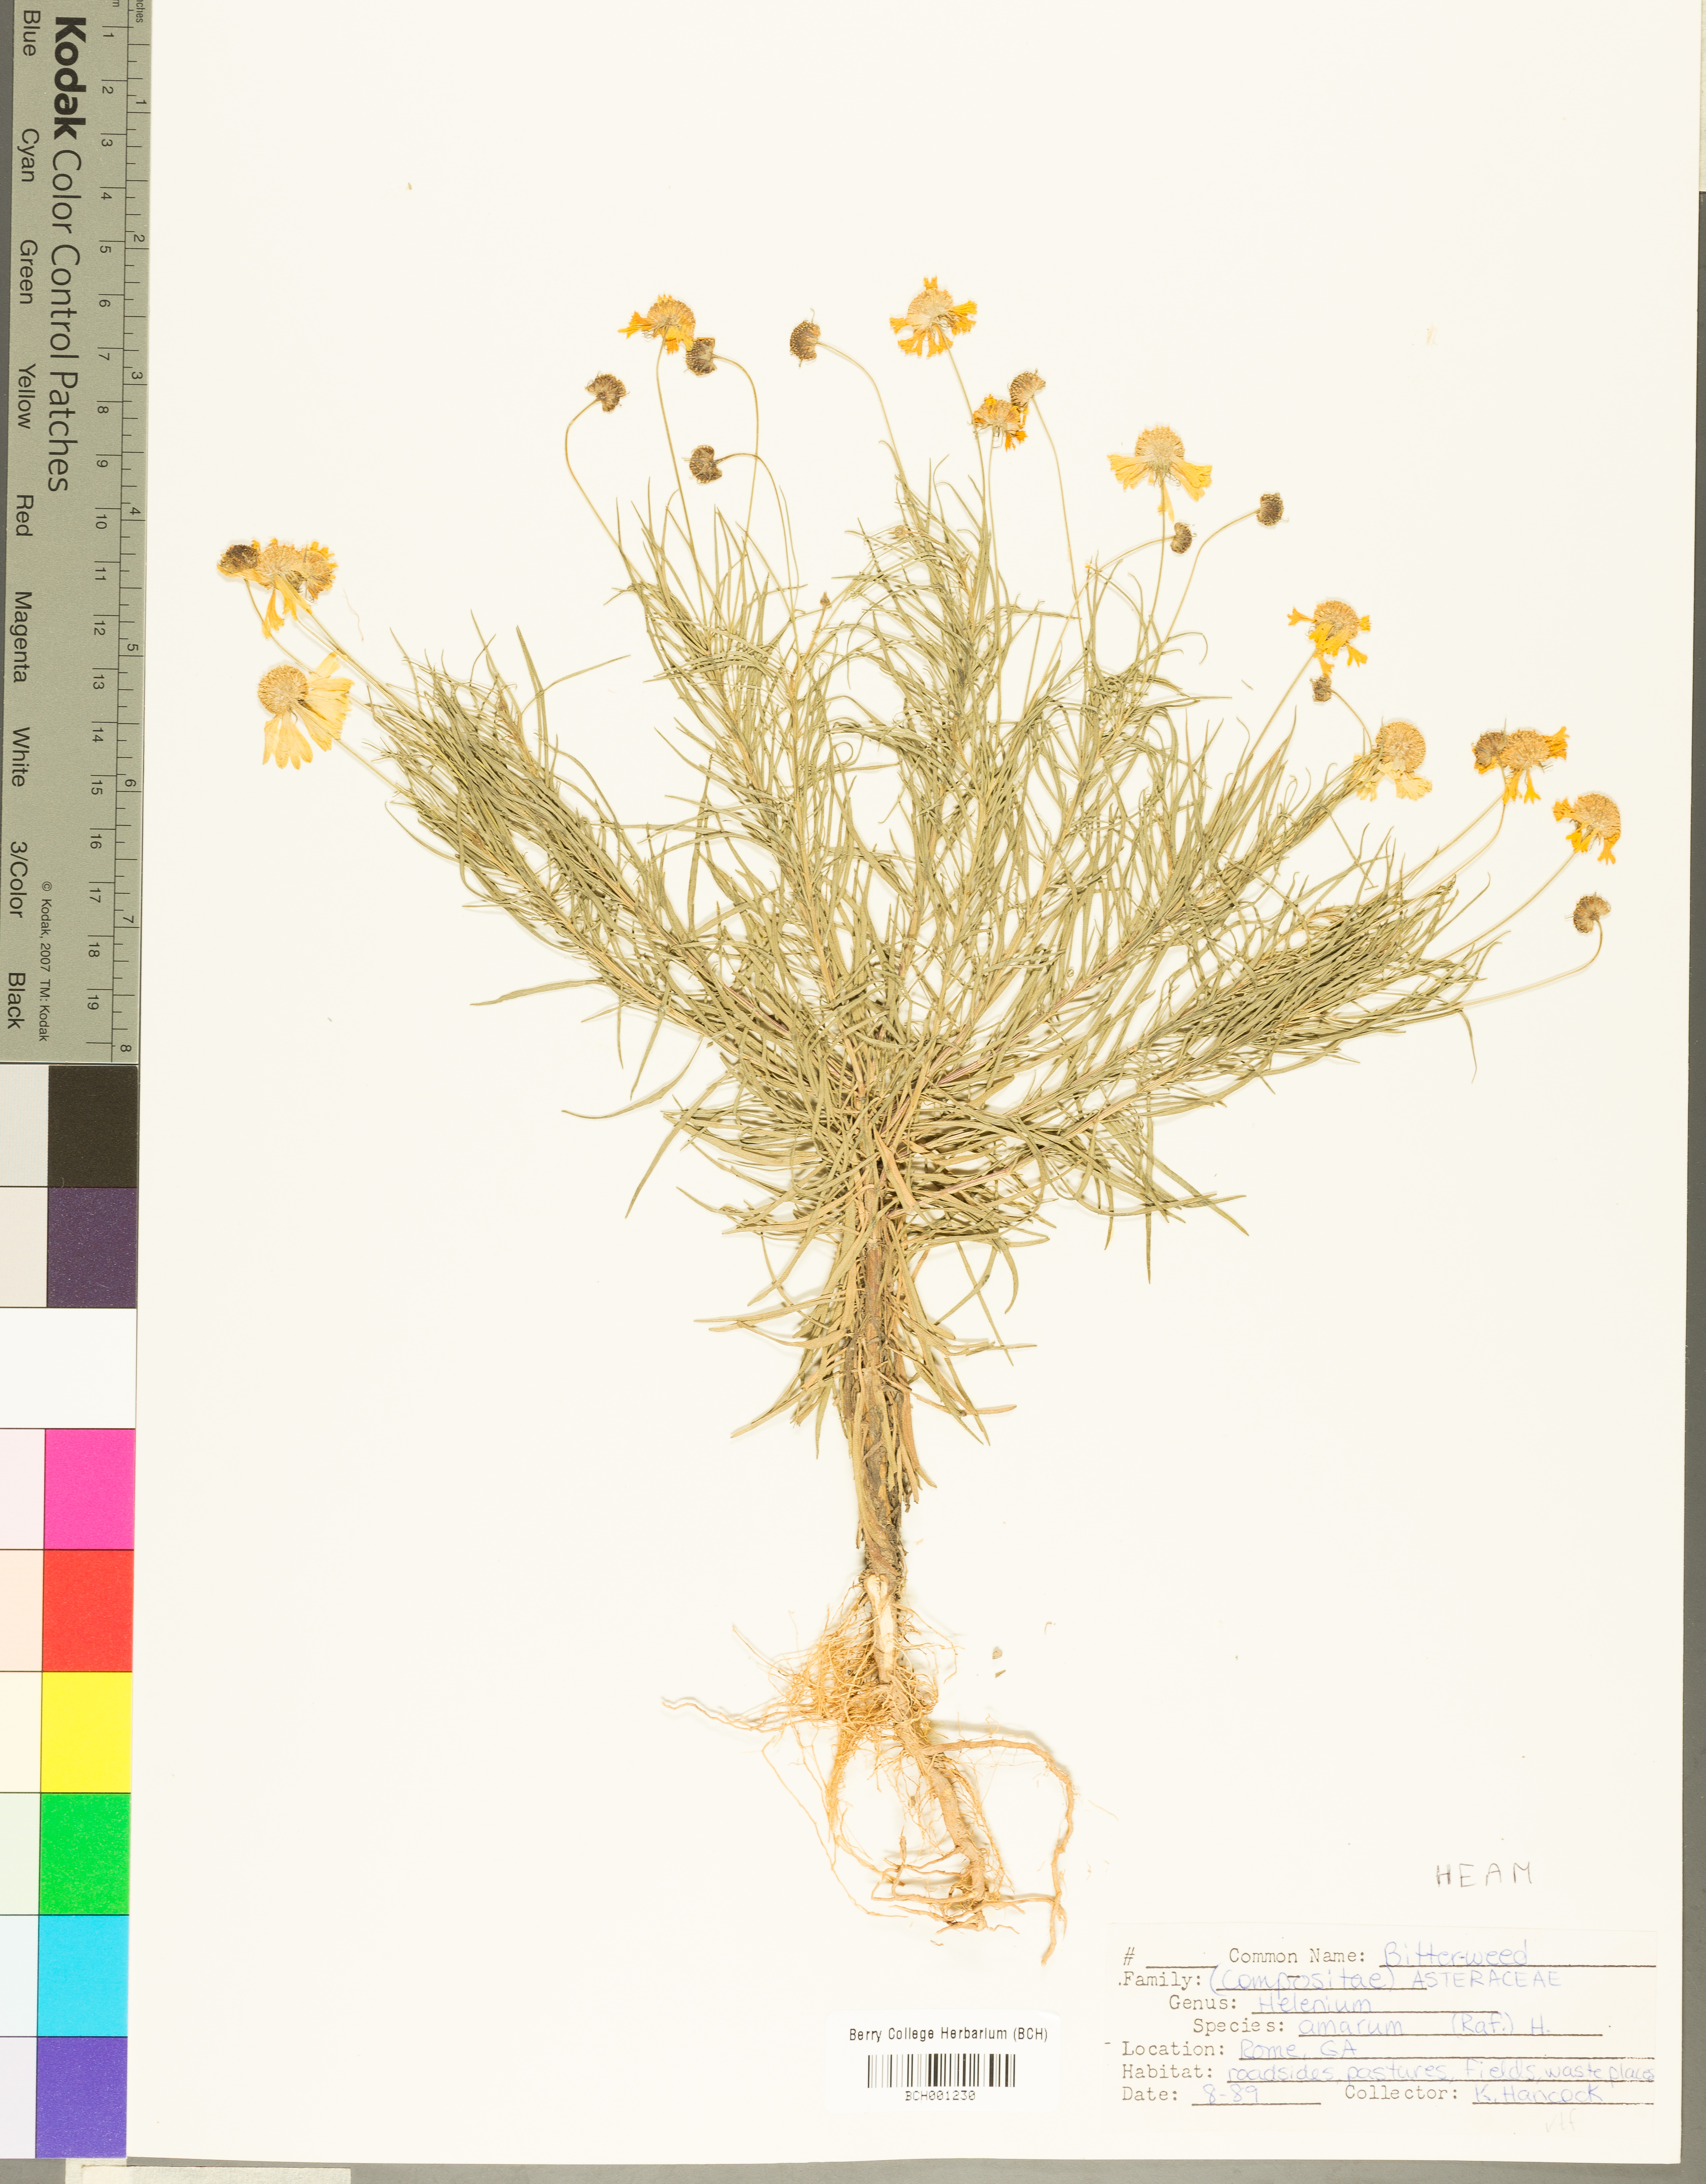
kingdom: Plantae
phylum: Tracheophyta
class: Magnoliopsida
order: Asterales
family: Asteraceae
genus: Helenium
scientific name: Helenium amarum
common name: Bitter sneezeweed
